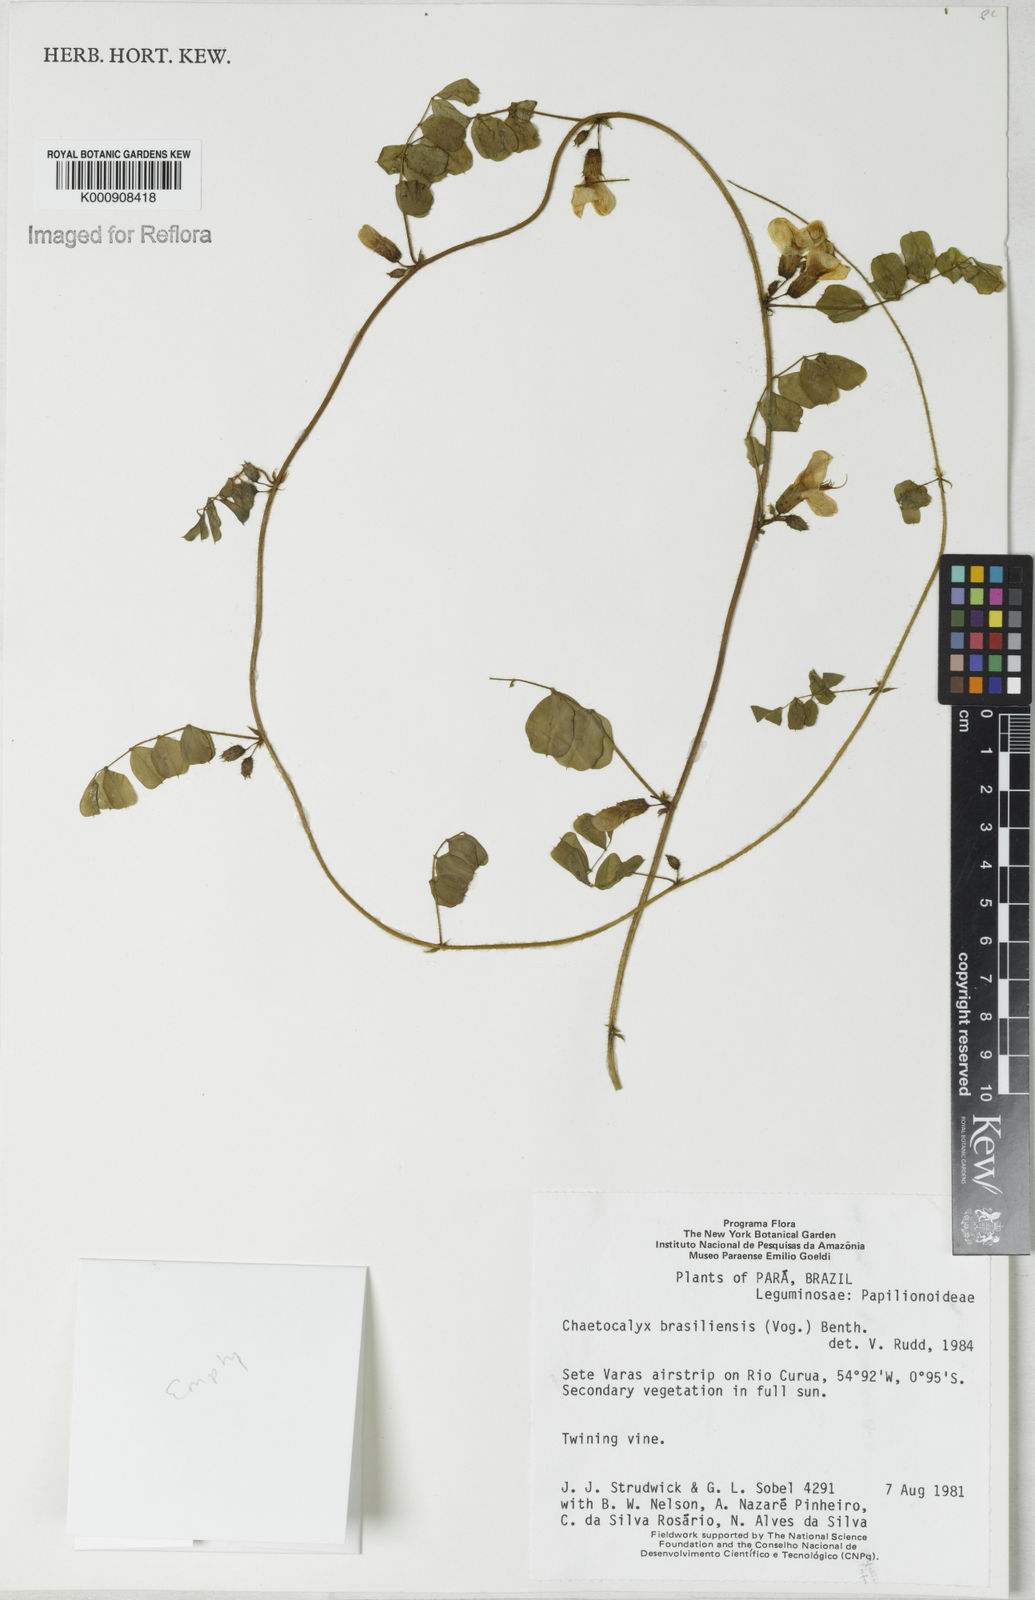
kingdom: Plantae
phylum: Tracheophyta
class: Magnoliopsida
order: Fabales
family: Fabaceae
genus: Nissolia
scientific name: Nissolia brasiliensis
